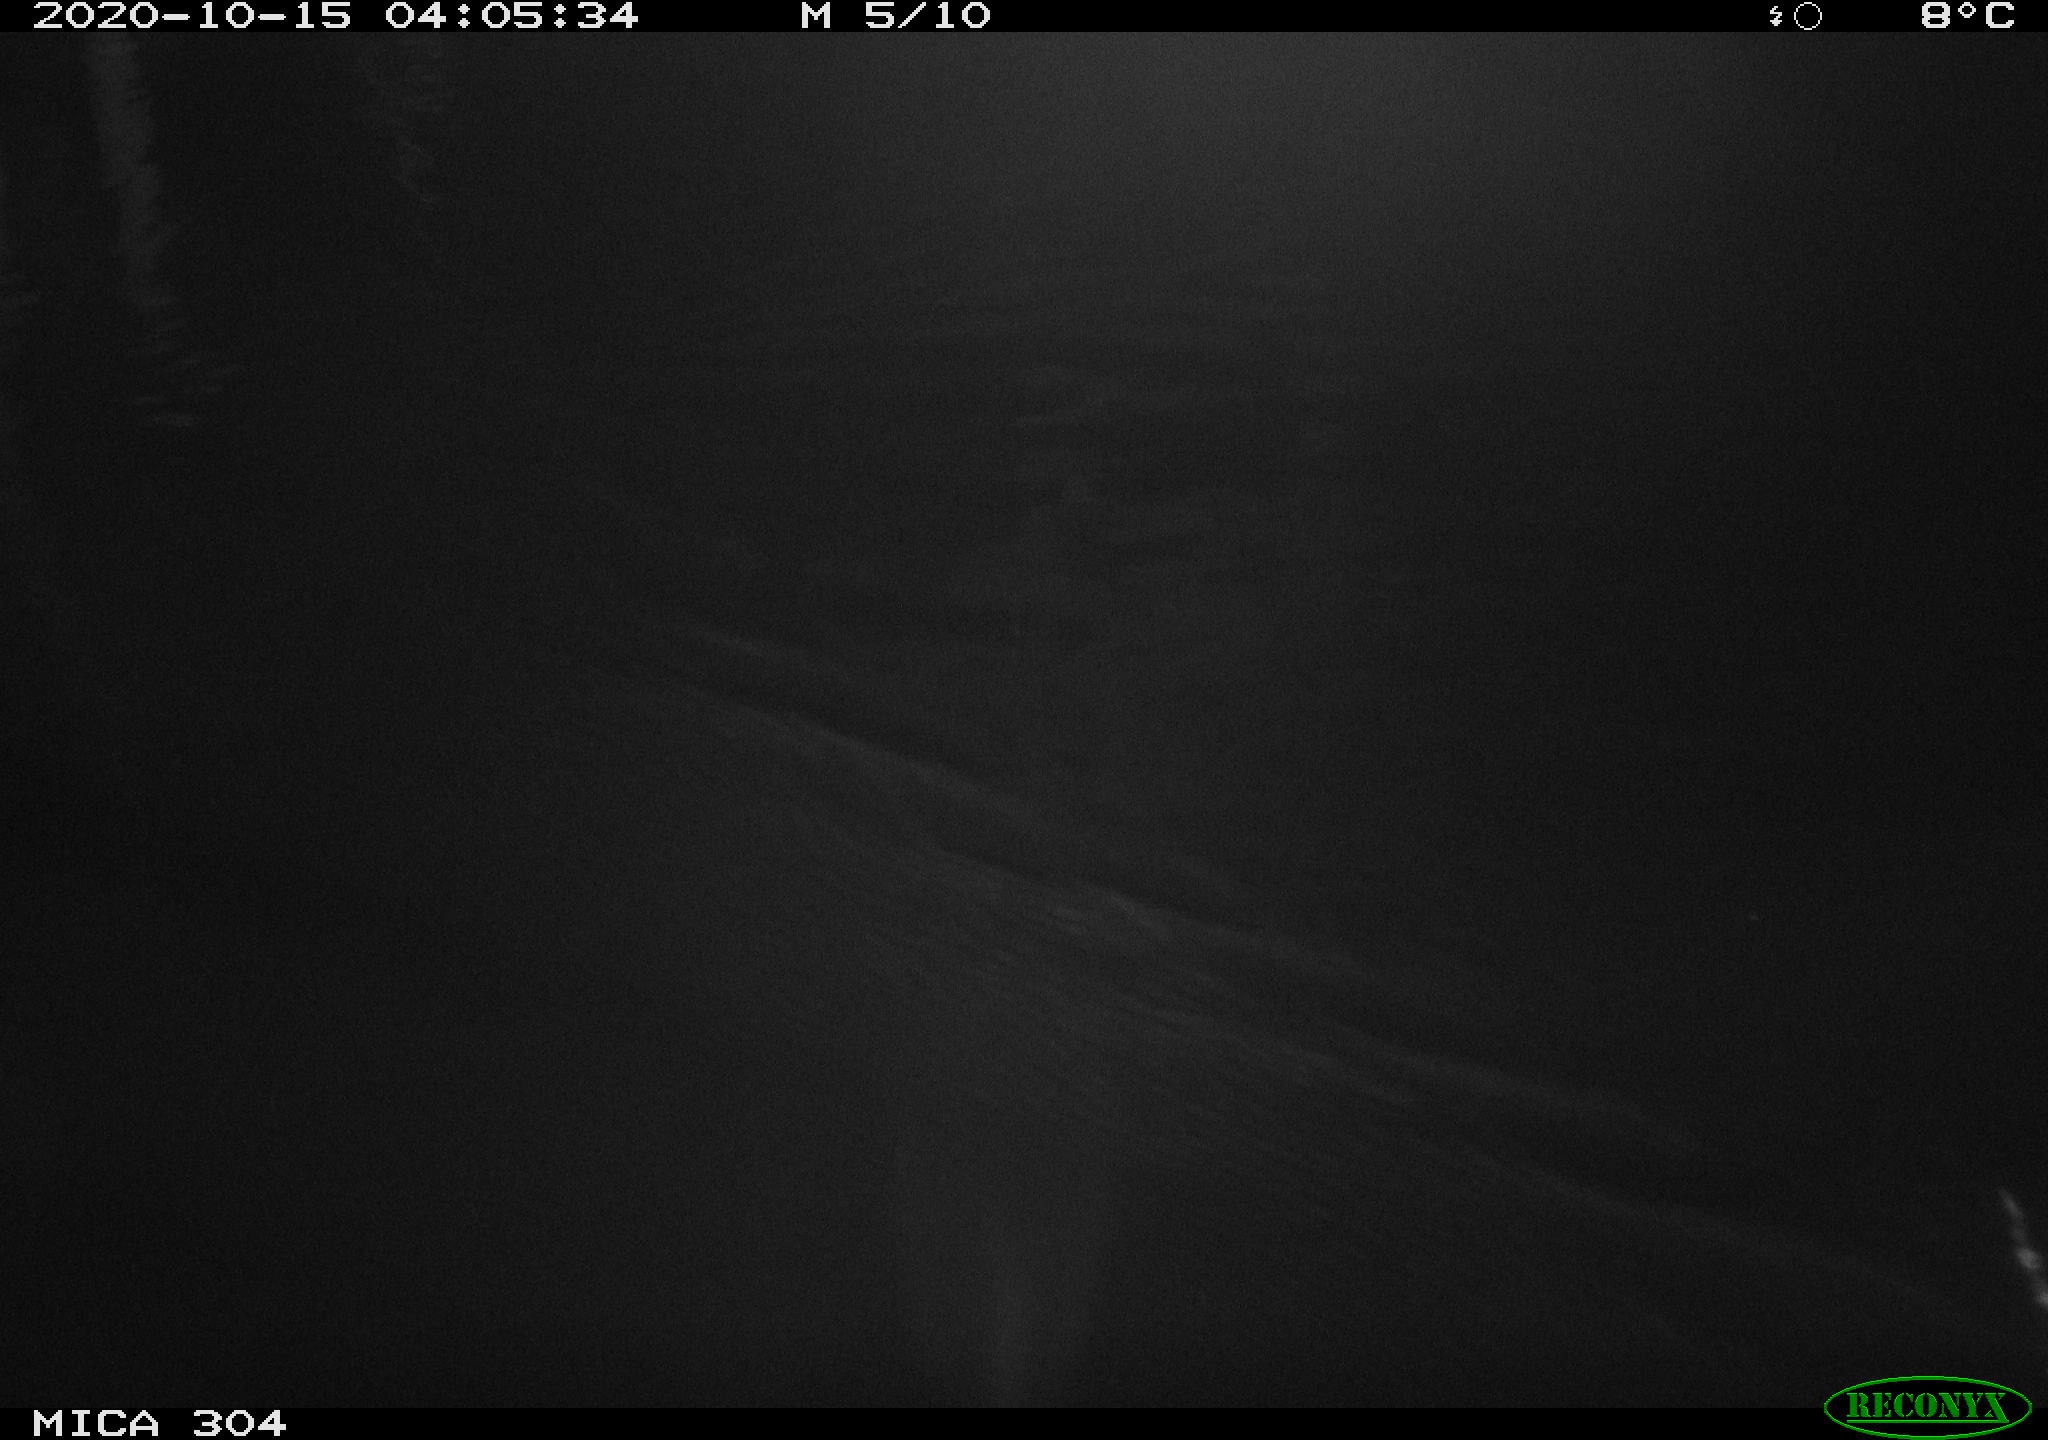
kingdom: Animalia
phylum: Chordata
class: Mammalia
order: Rodentia
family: Cricetidae
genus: Ondatra
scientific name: Ondatra zibethicus
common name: Muskrat
